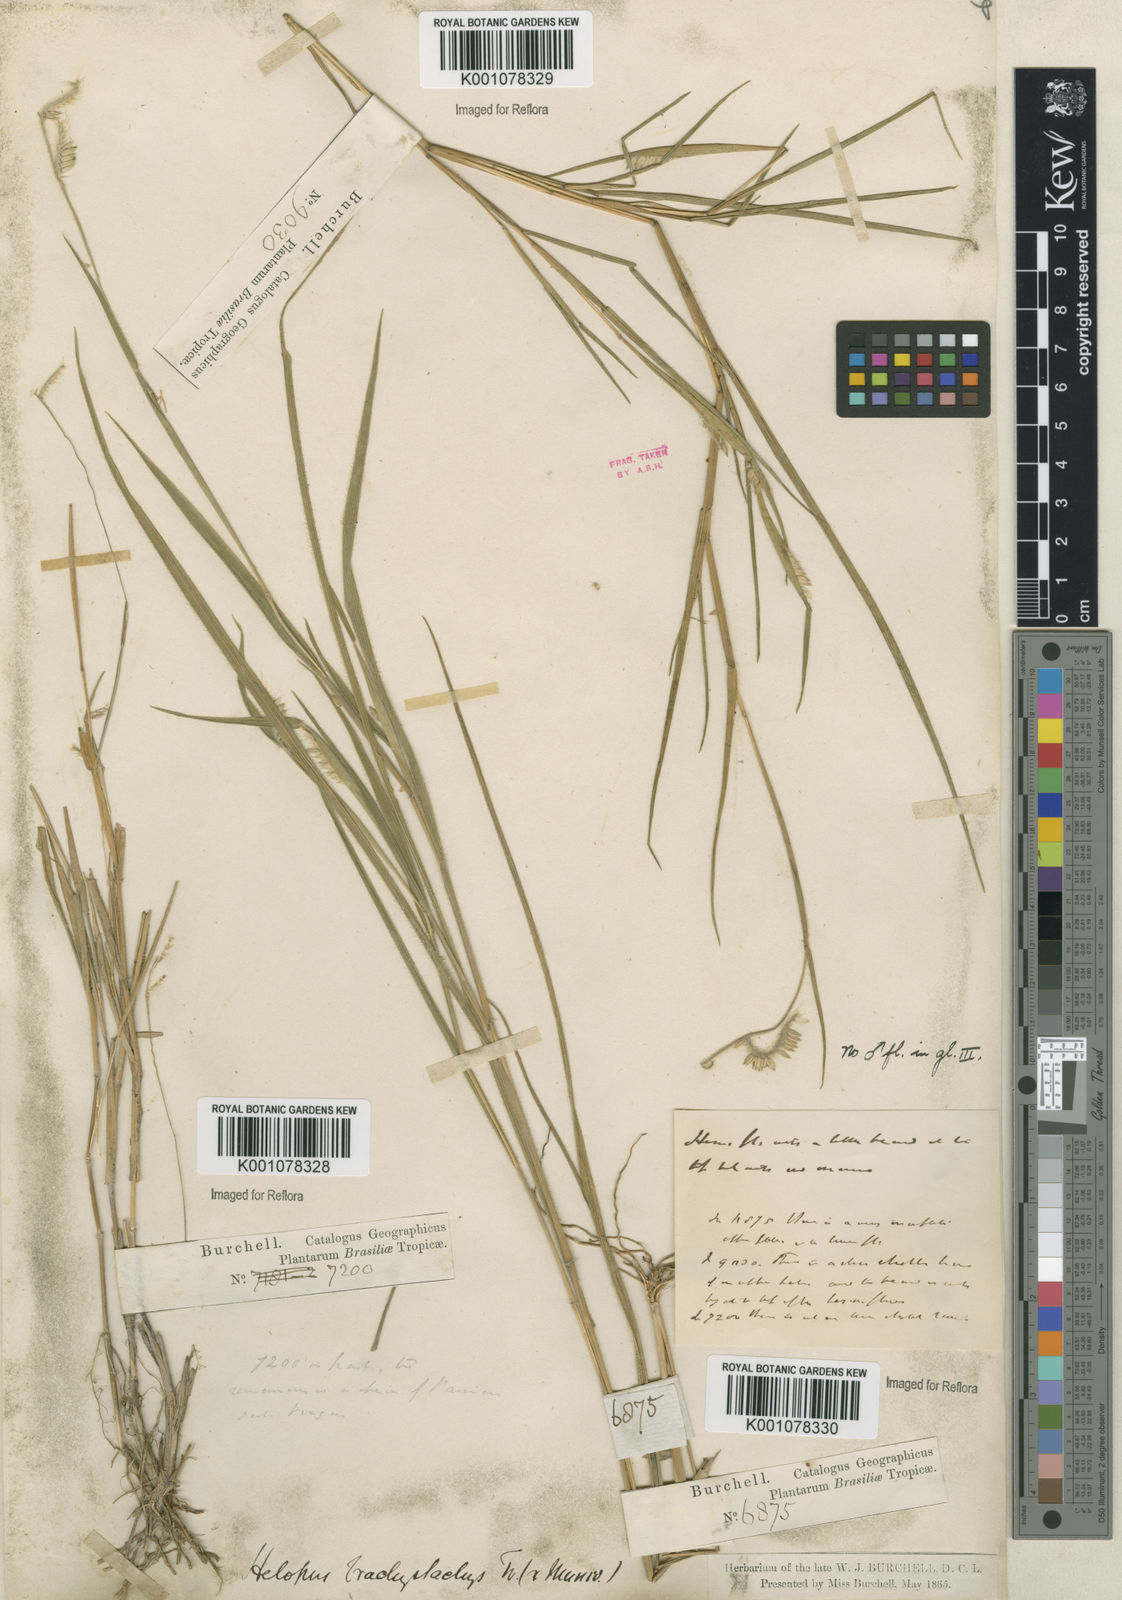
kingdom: Plantae
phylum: Tracheophyta
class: Liliopsida
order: Poales
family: Poaceae
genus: Eriochloa
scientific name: Eriochloa distachya
